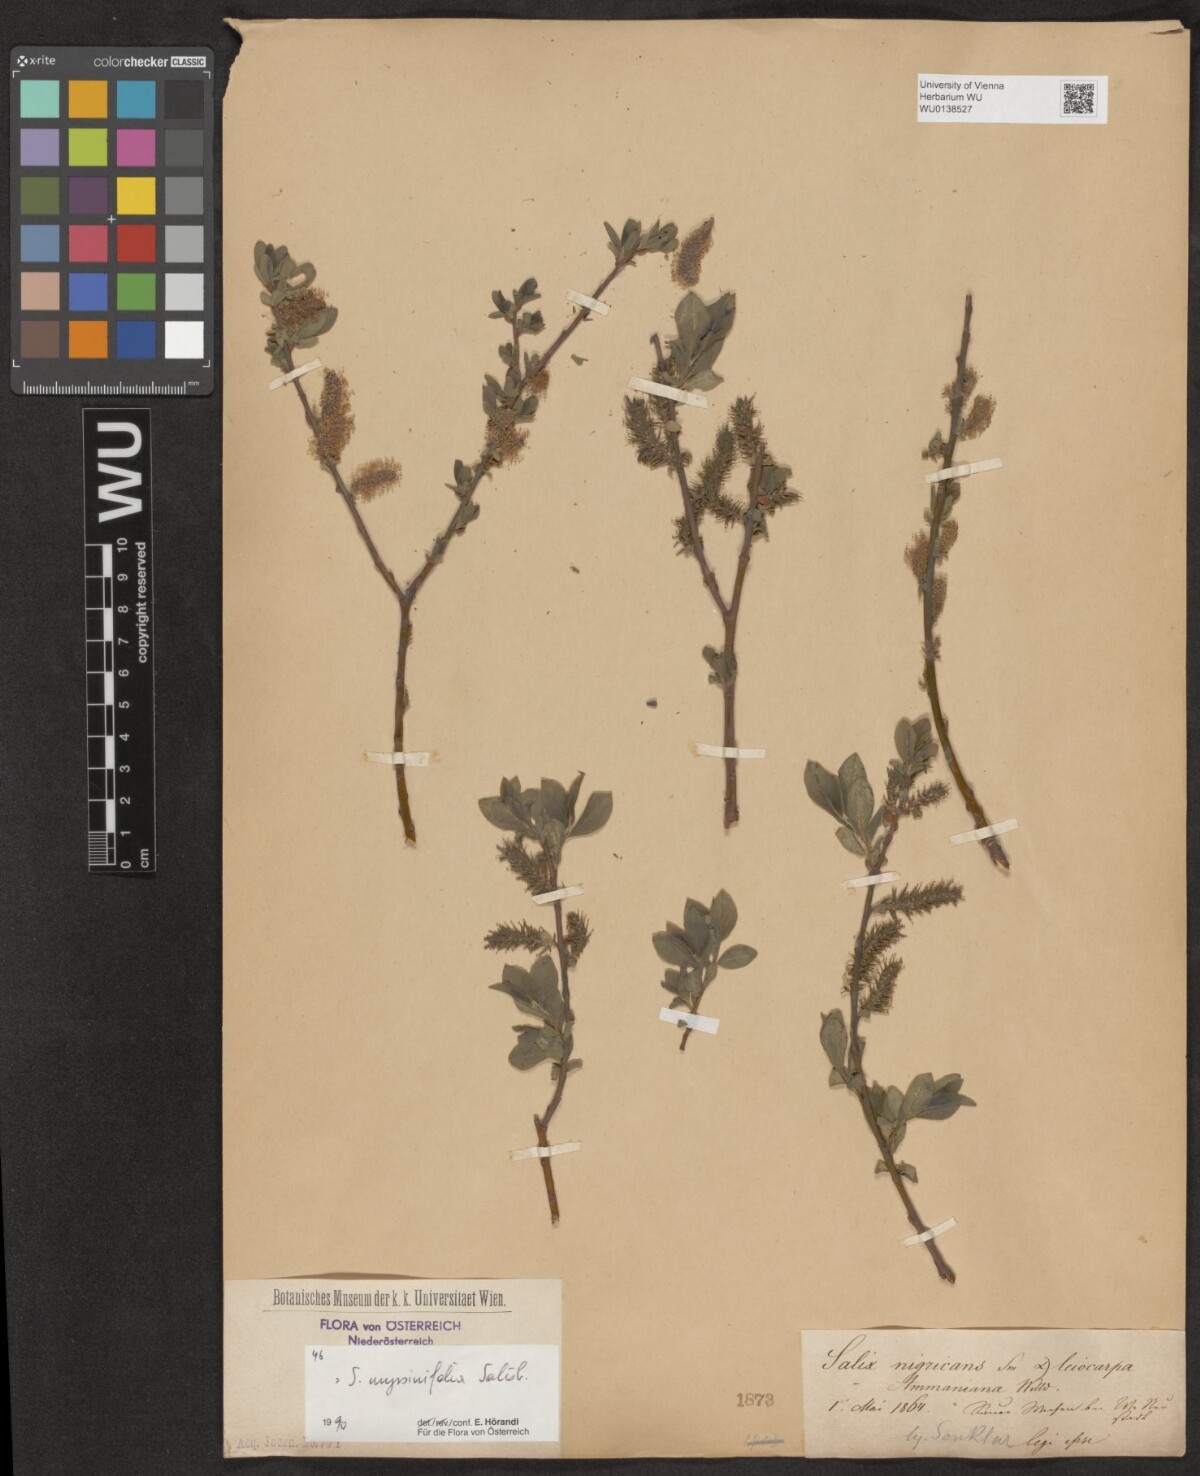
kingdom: Plantae
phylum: Tracheophyta
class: Magnoliopsida
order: Malpighiales
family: Salicaceae
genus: Salix
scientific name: Salix myrsinifolia
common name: Dark-leaved willow
